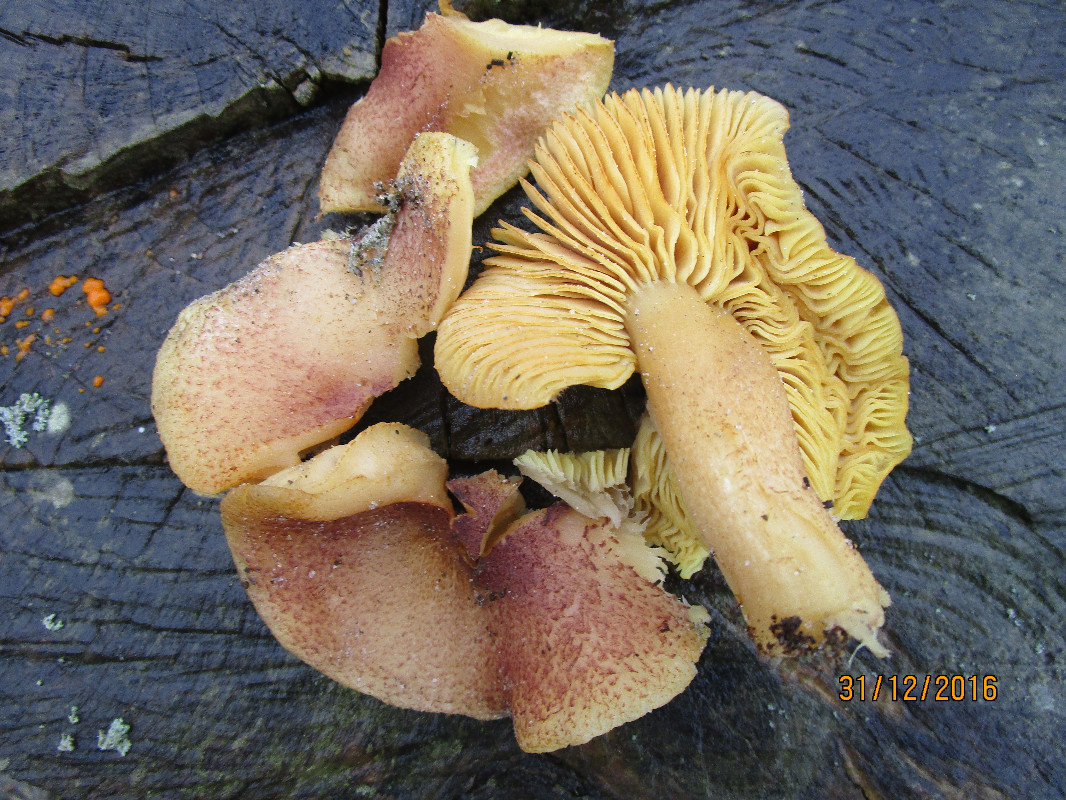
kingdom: Fungi
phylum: Basidiomycota
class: Agaricomycetes
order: Agaricales
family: Tricholomataceae
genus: Tricholomopsis
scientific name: Tricholomopsis rutilans
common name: purpur-væbnerhat
